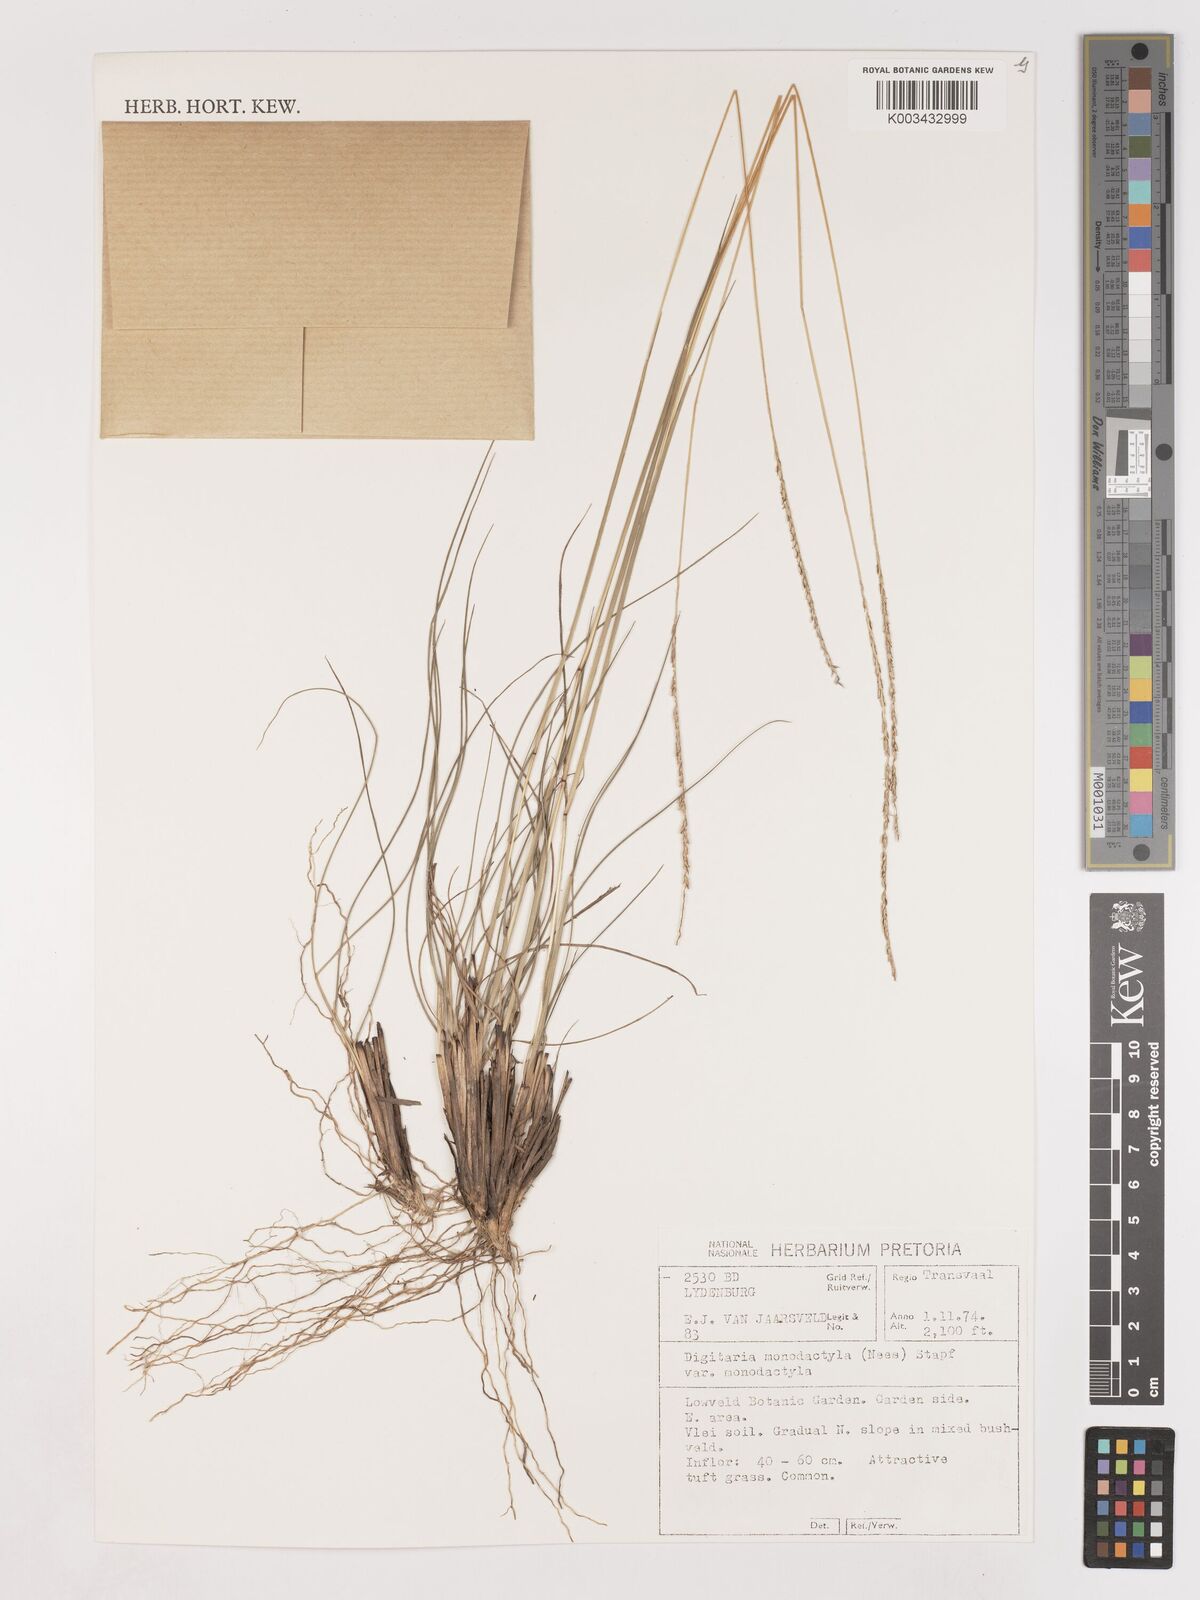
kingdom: Plantae
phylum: Tracheophyta
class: Liliopsida
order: Poales
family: Poaceae
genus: Digitaria
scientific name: Digitaria monodactyla
